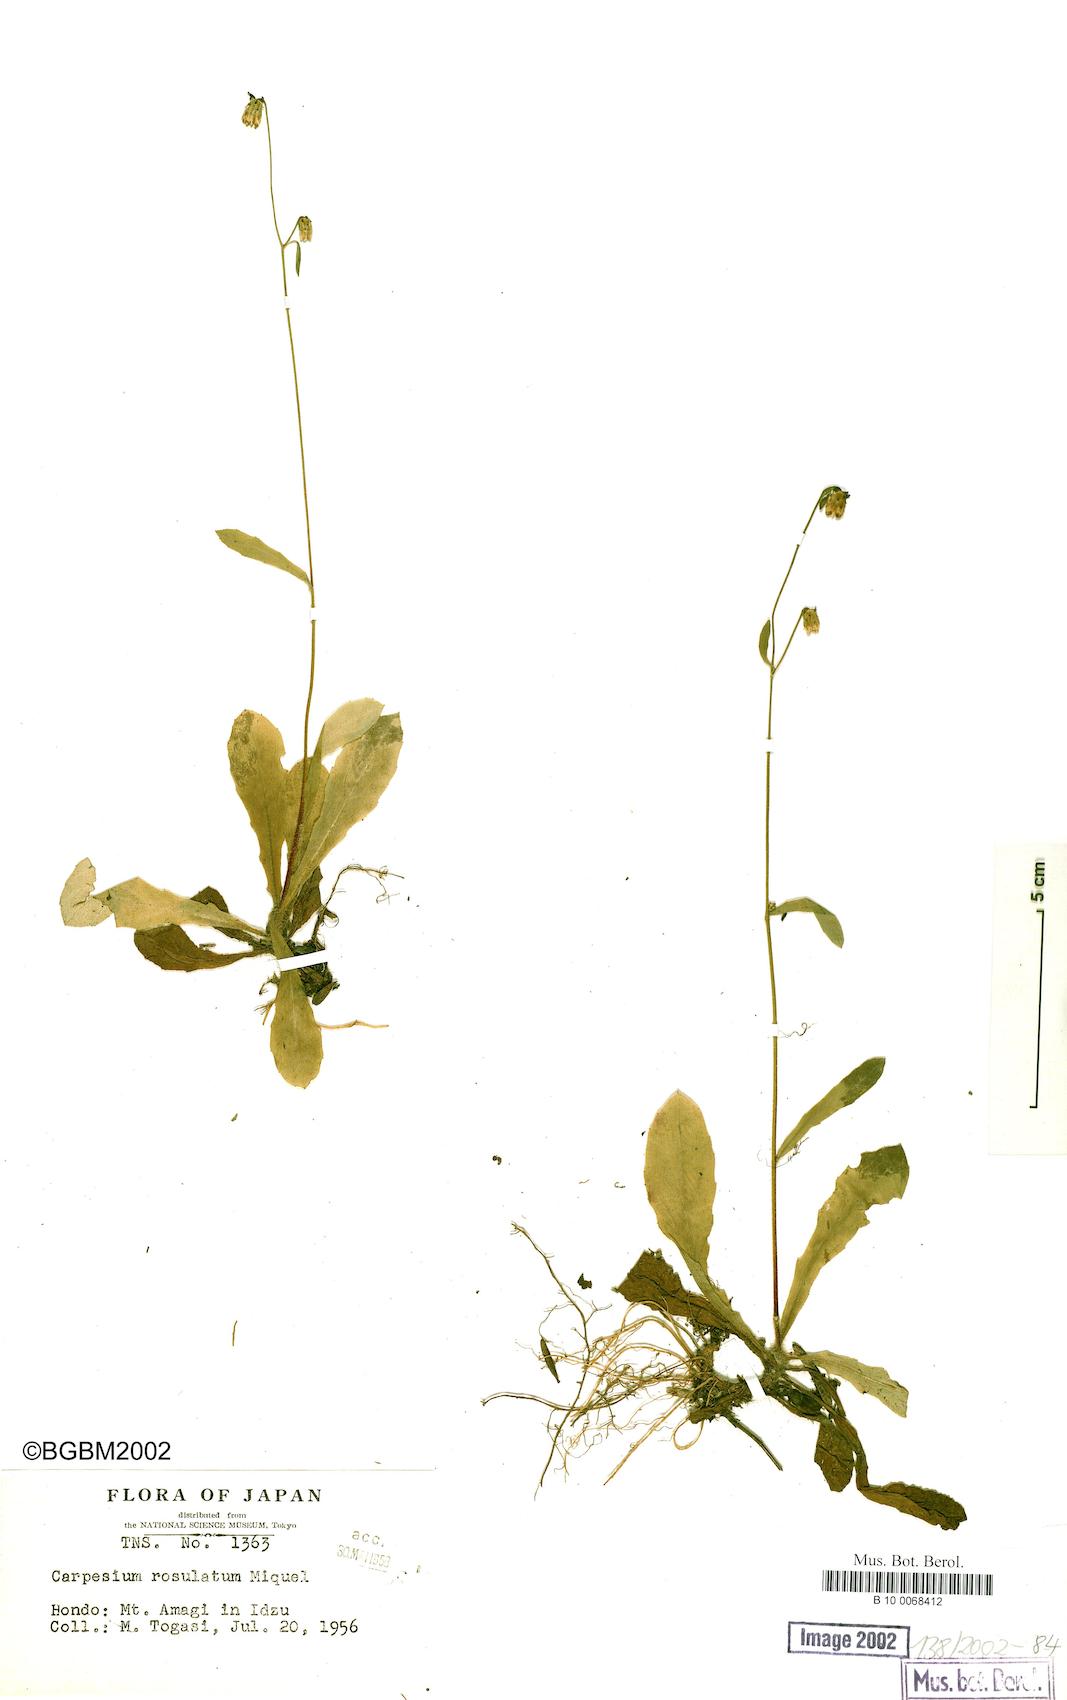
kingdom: Plantae
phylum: Tracheophyta
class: Magnoliopsida
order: Asterales
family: Asteraceae
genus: Carpesium
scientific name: Carpesium rosulatum
